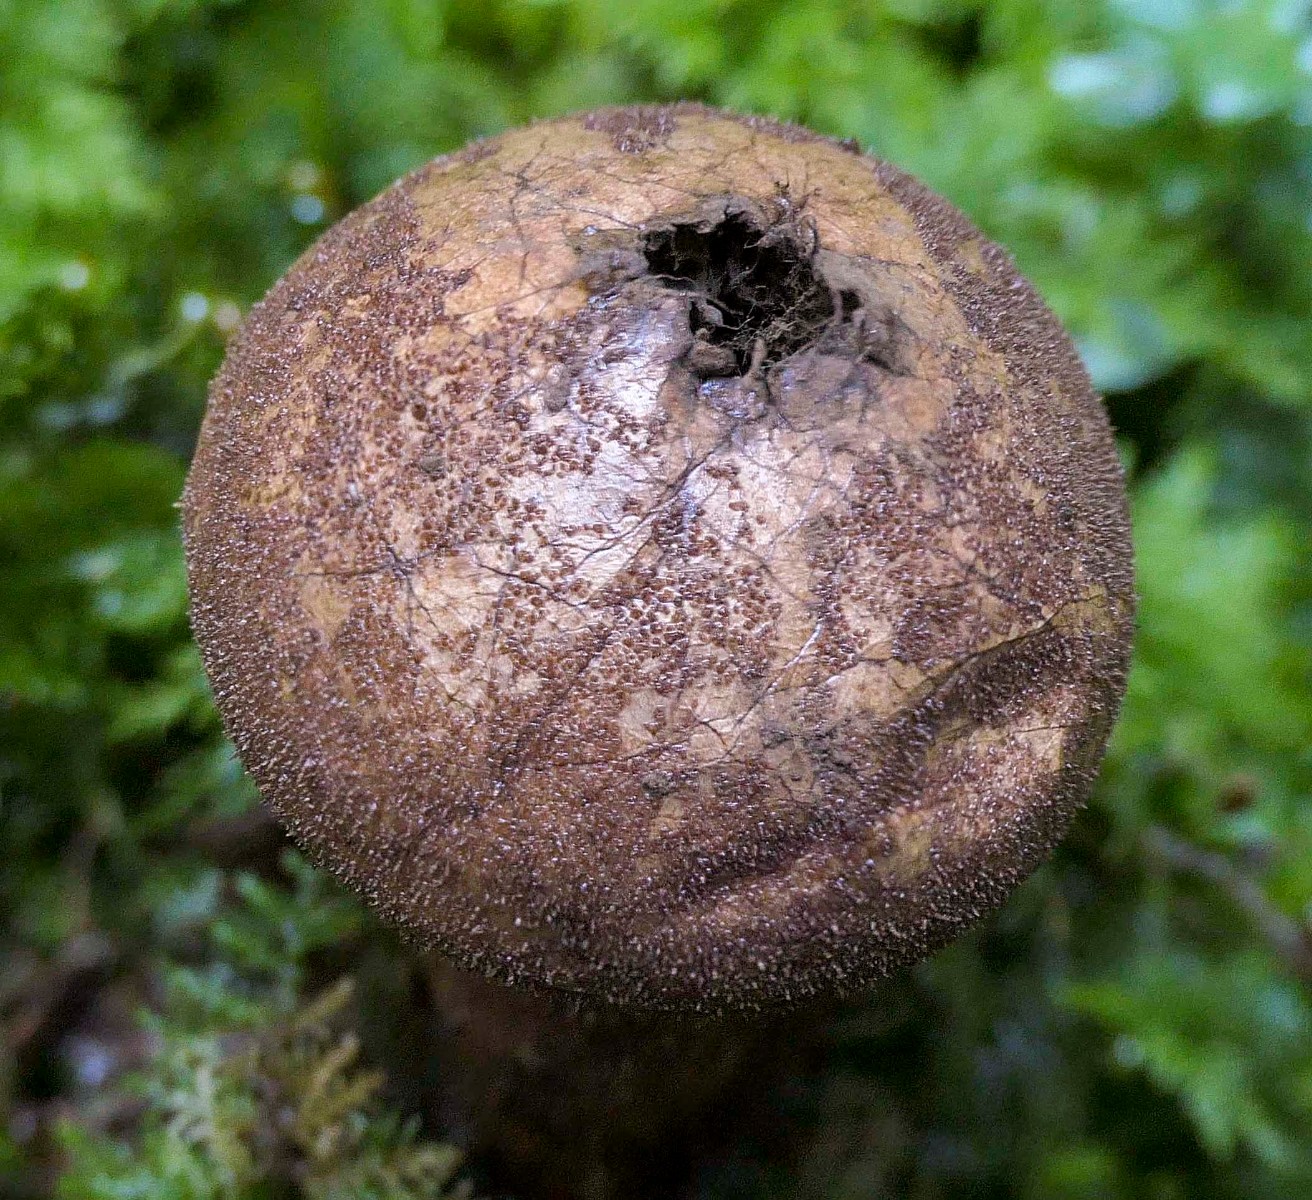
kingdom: Fungi
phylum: Basidiomycota
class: Agaricomycetes
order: Agaricales
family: Lycoperdaceae
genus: Lycoperdon
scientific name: Lycoperdon umbrinum
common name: umbrabrun støvbold
